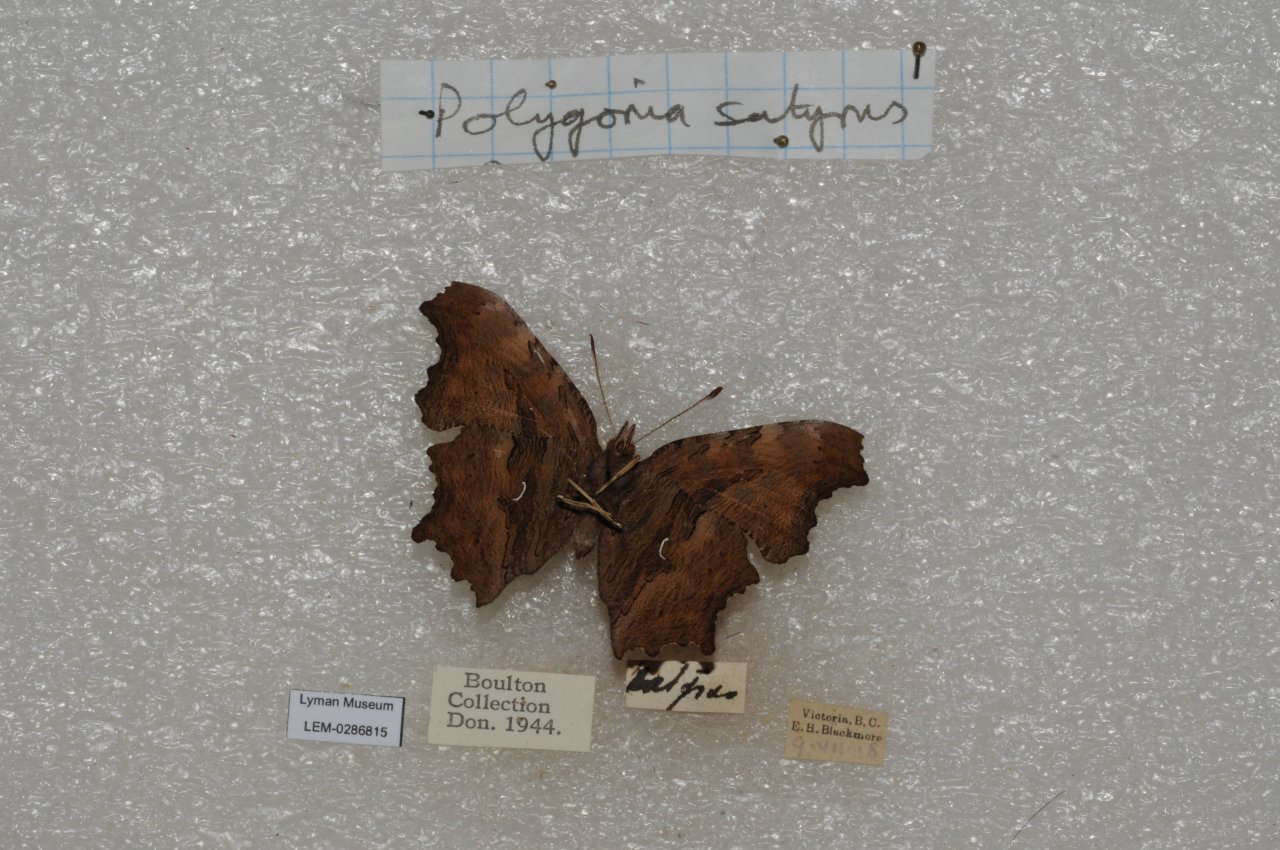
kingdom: Animalia
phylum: Arthropoda
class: Insecta
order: Lepidoptera
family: Nymphalidae
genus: Polygonia
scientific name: Polygonia satyrus
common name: Satyr Comma
